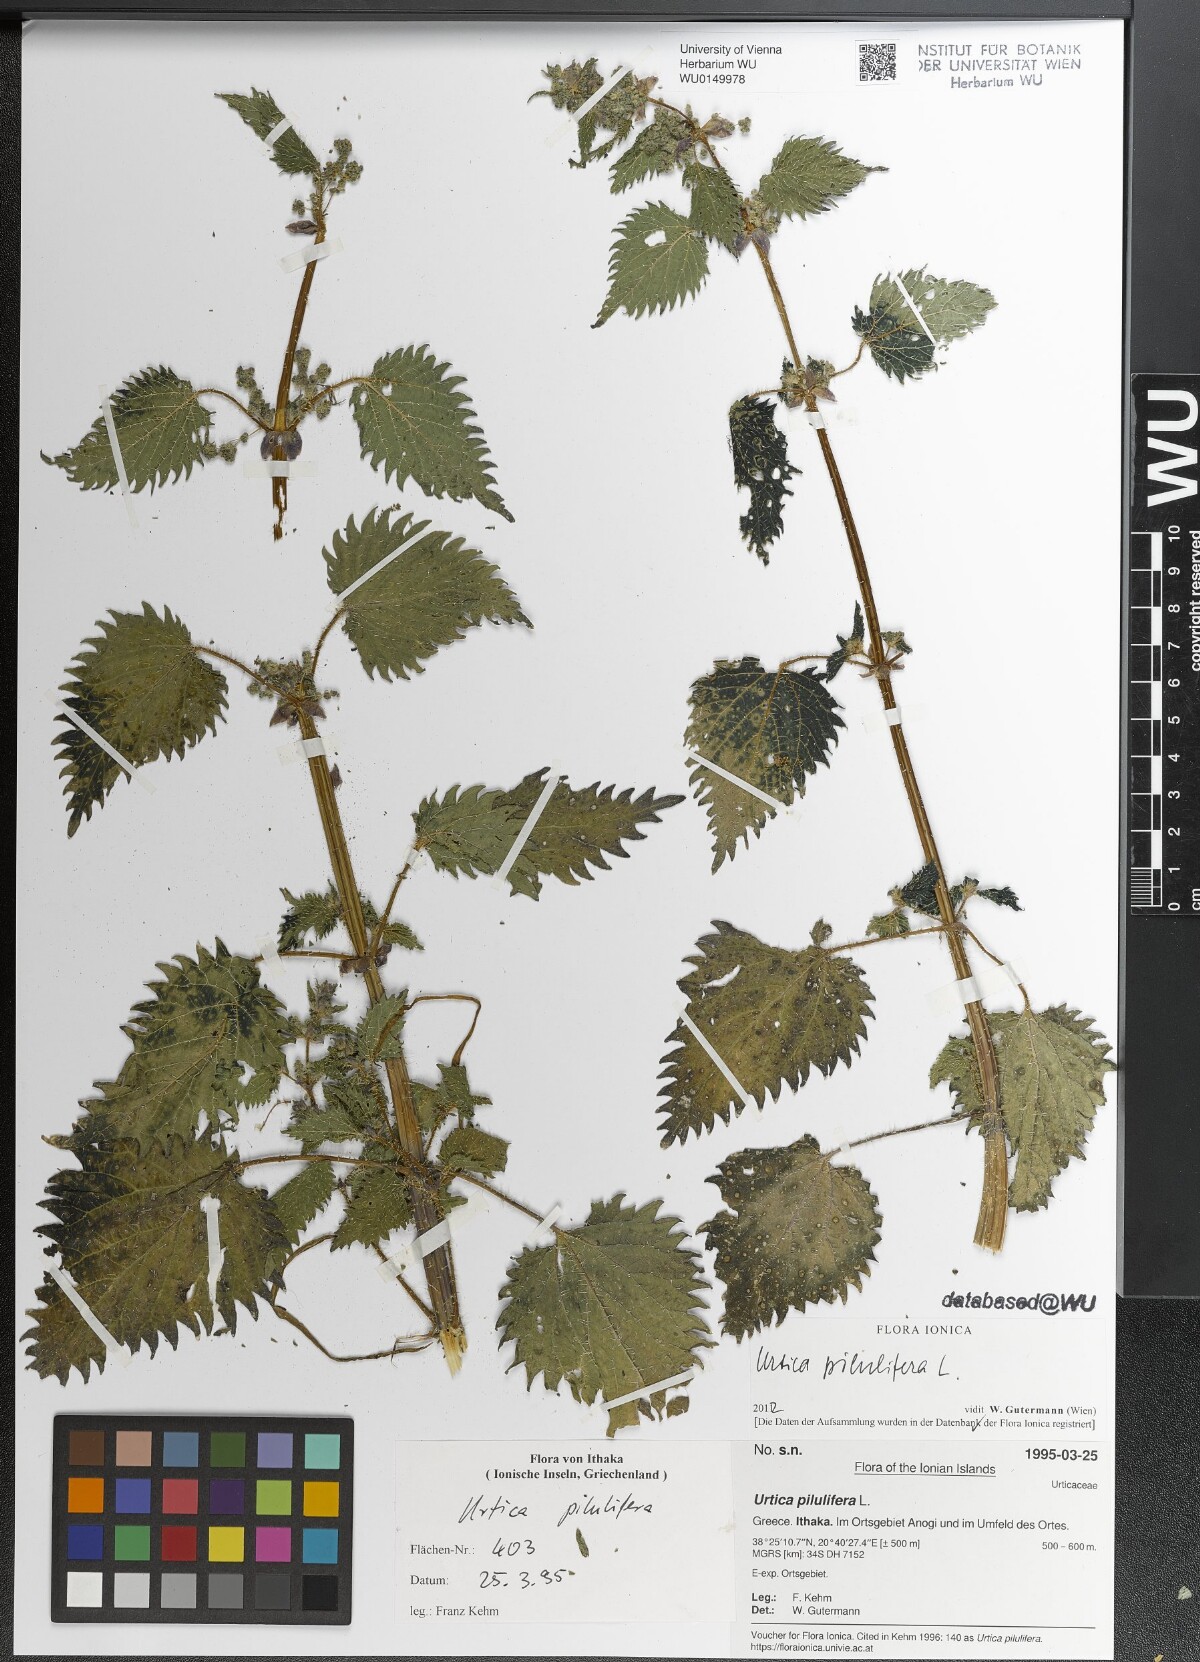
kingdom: Plantae
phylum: Tracheophyta
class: Magnoliopsida
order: Rosales
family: Urticaceae
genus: Urtica
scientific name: Urtica pilulifera
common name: Roman nettle
